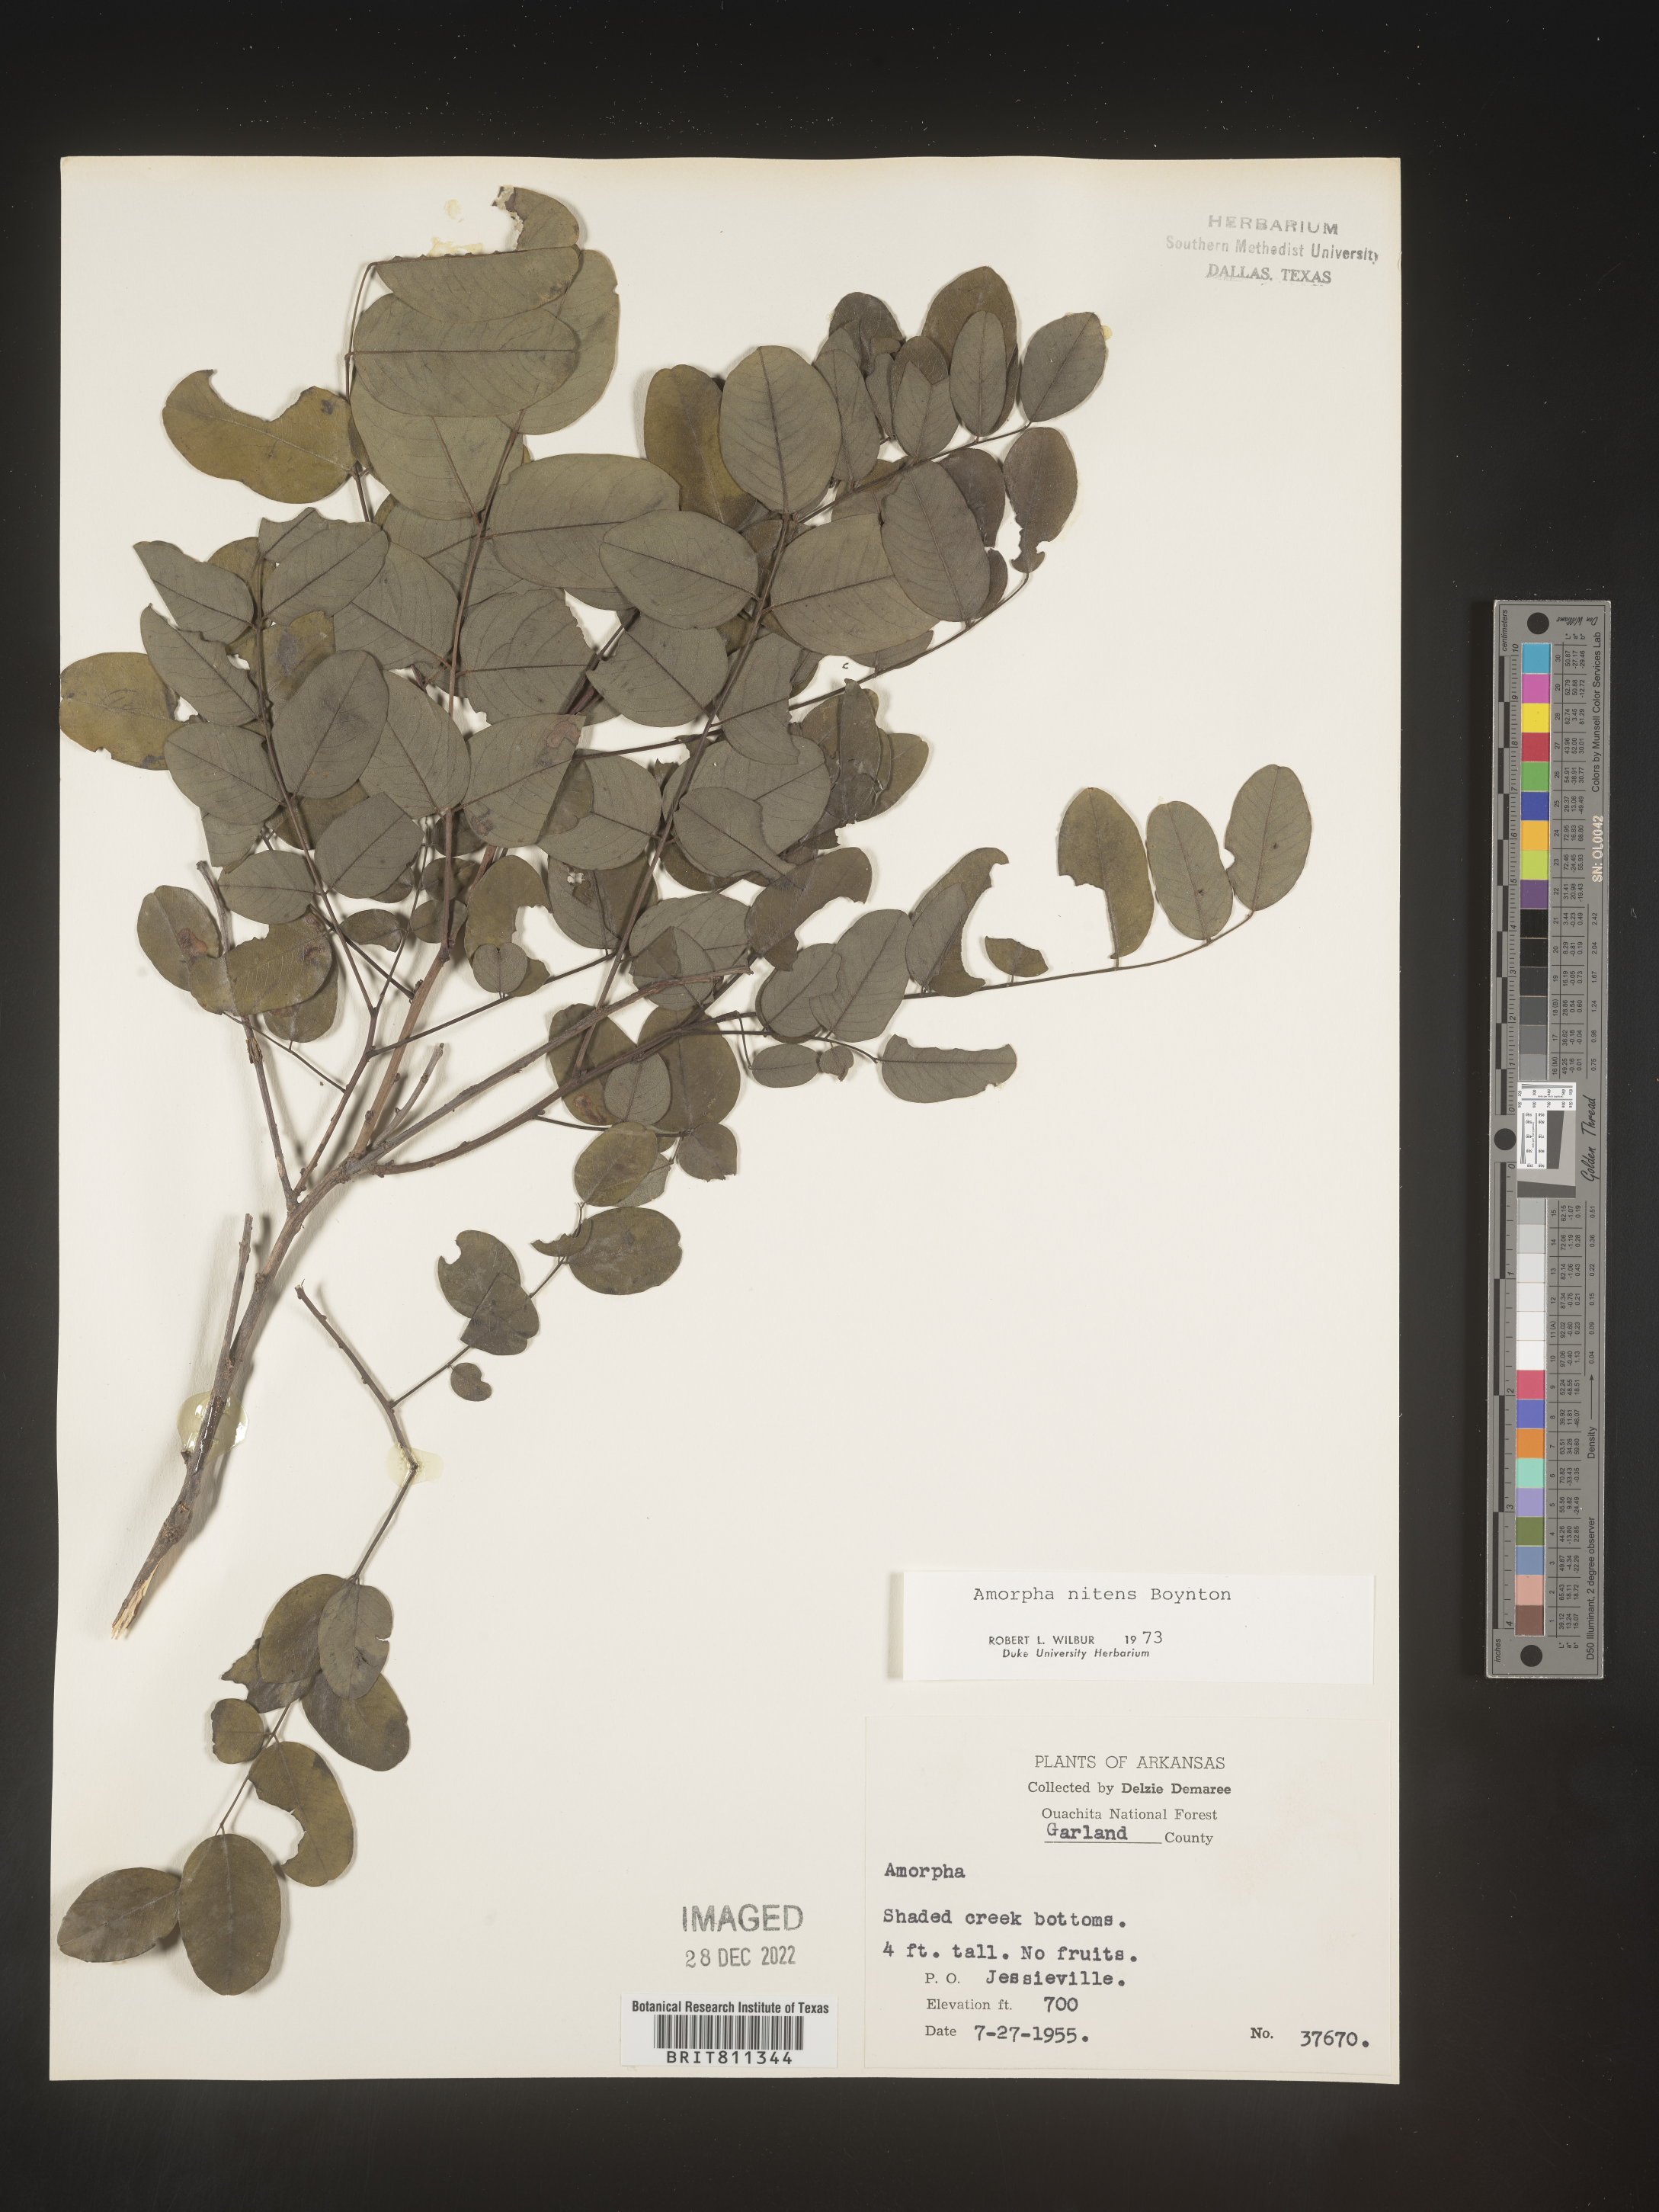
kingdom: Plantae
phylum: Tracheophyta
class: Magnoliopsida
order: Fabales
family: Fabaceae
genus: Amorpha
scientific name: Amorpha nitens
